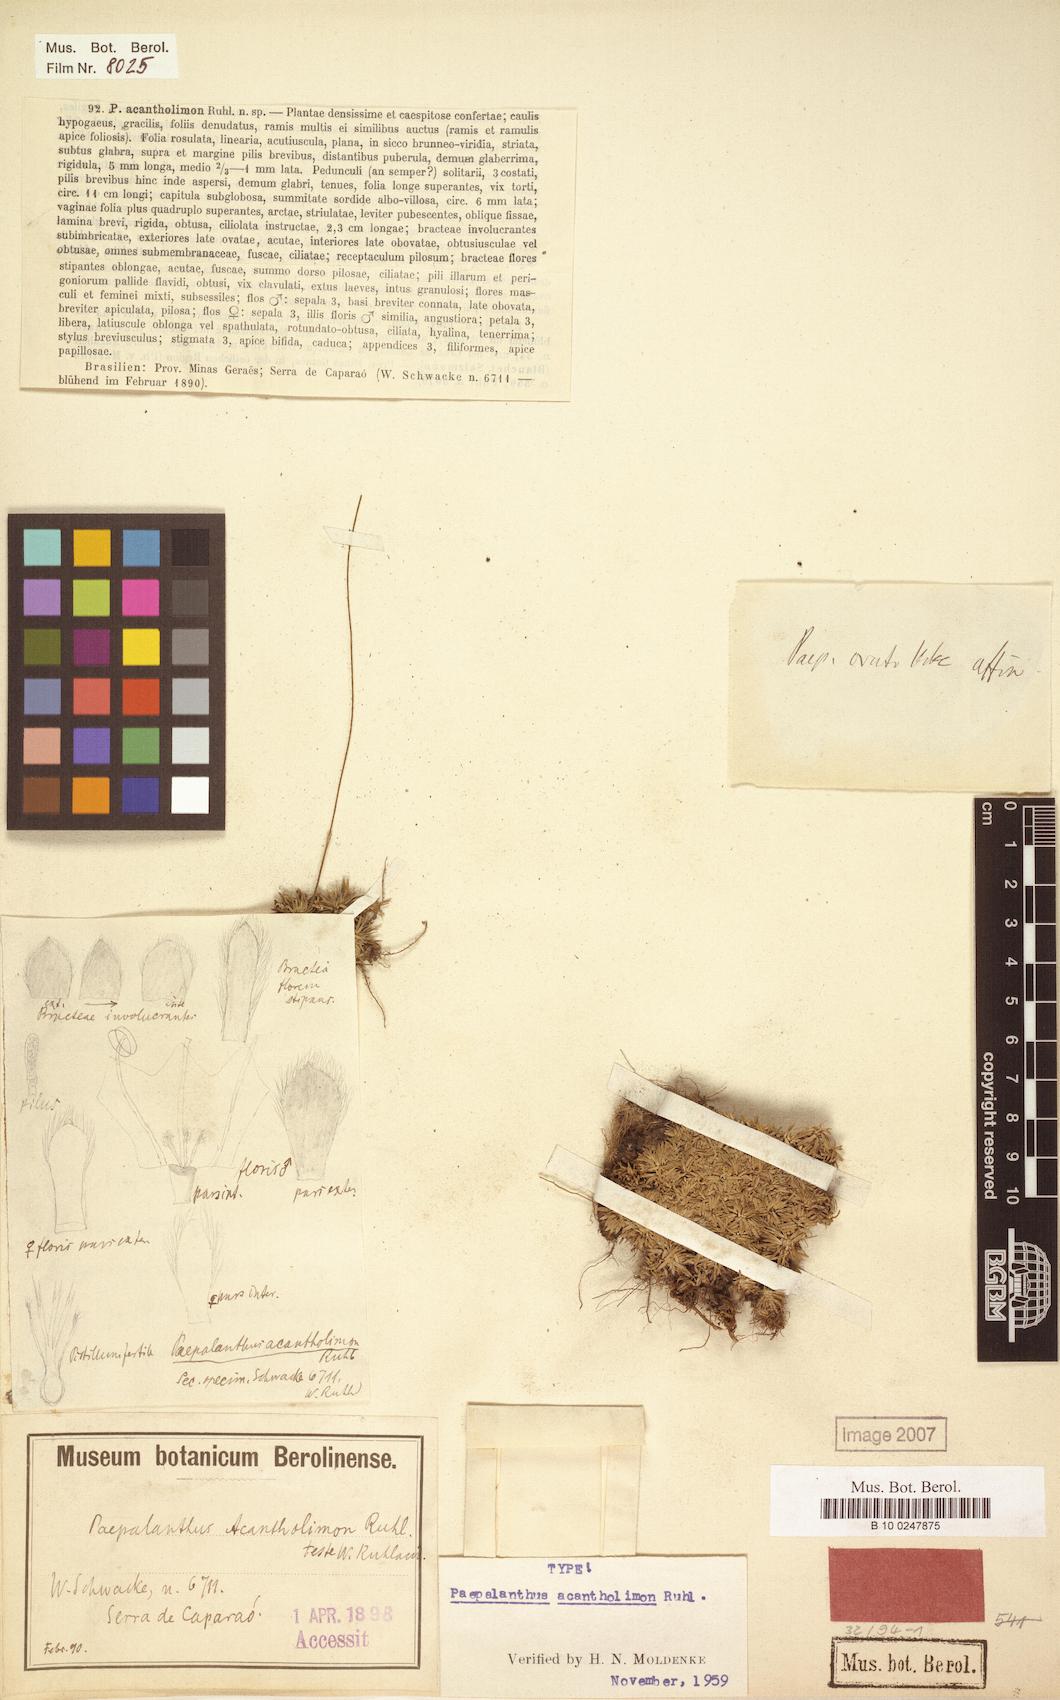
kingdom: Plantae
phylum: Tracheophyta
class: Liliopsida
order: Poales
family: Eriocaulaceae
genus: Paepalanthus
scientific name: Paepalanthus acantholimon
